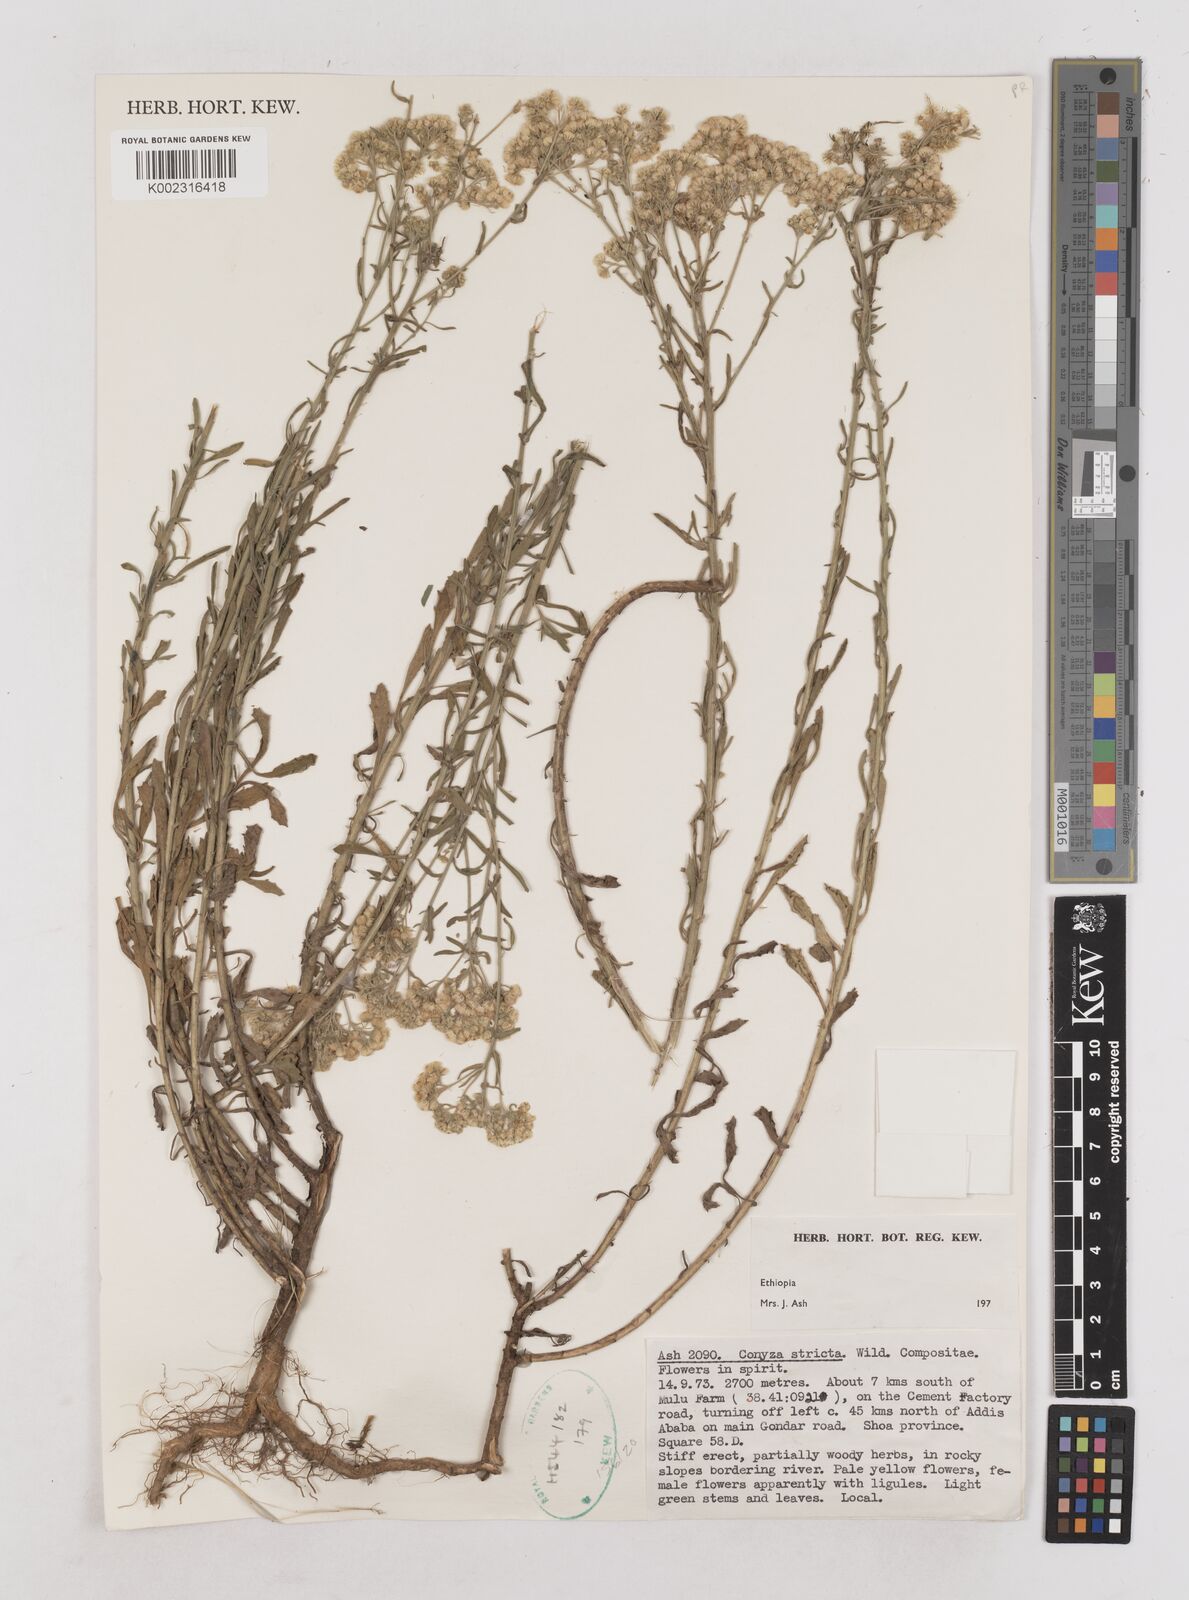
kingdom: Plantae
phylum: Tracheophyta
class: Magnoliopsida
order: Asterales
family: Asteraceae
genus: Nidorella
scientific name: Nidorella triloba
